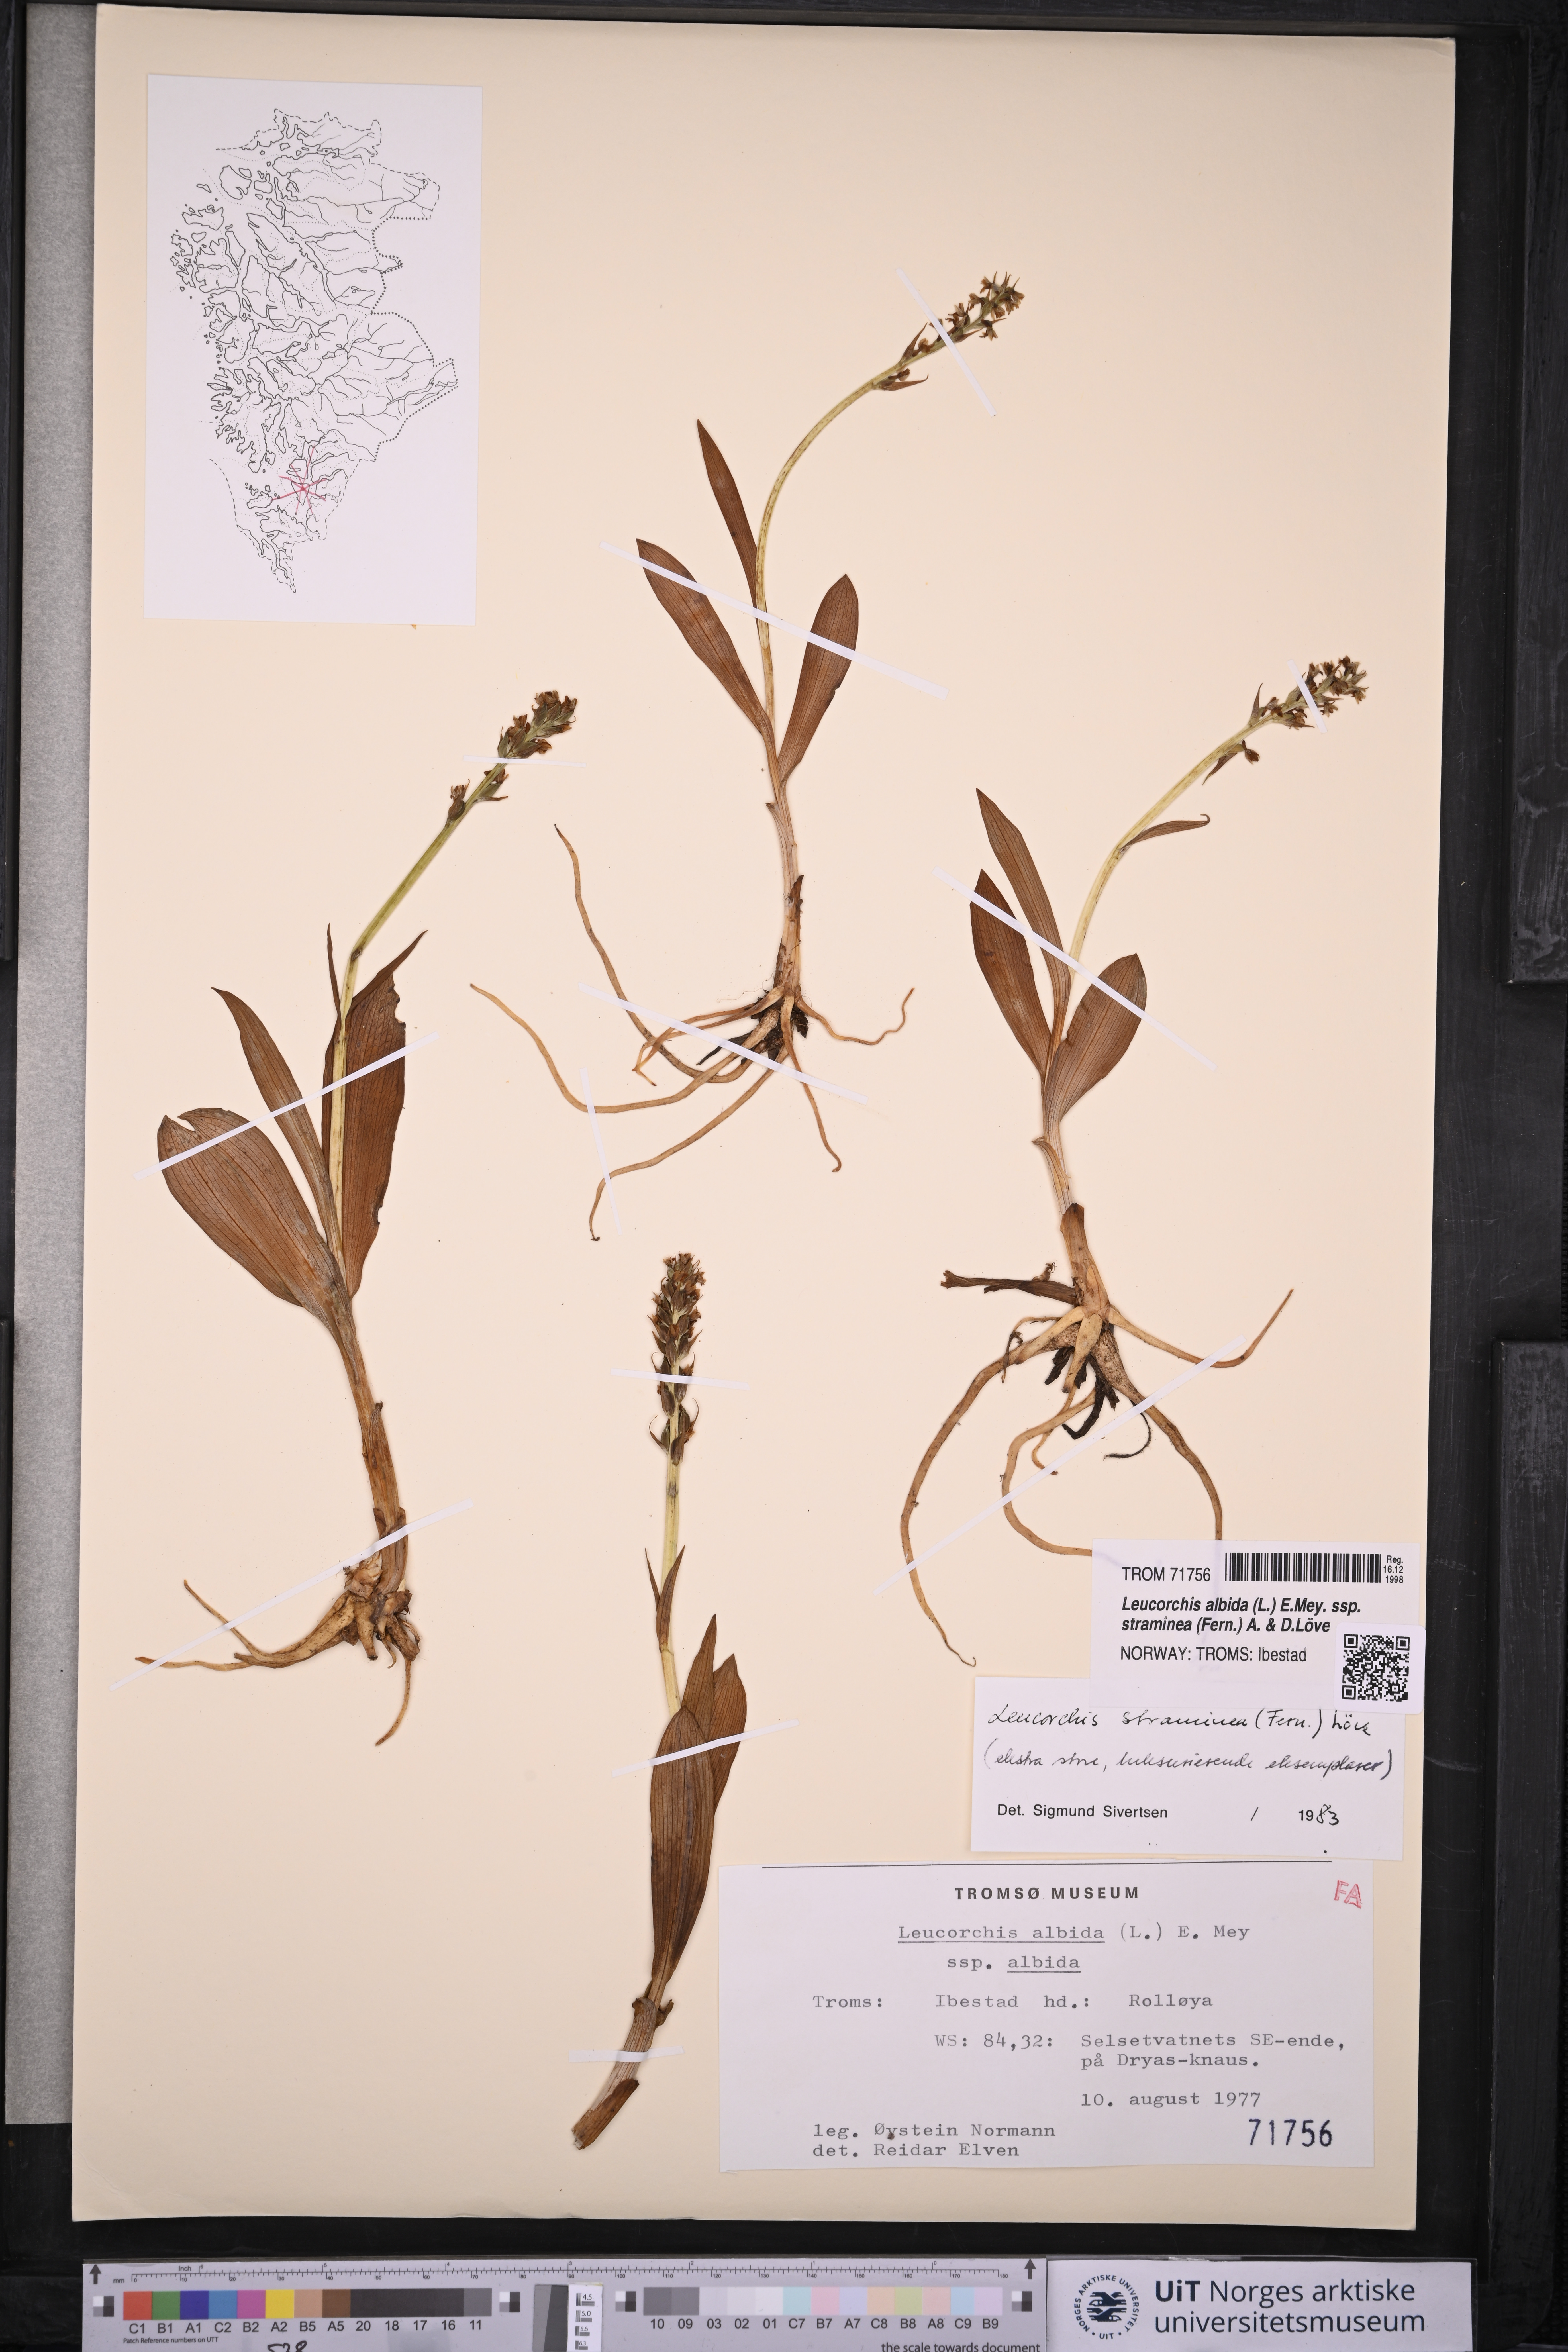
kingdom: Plantae
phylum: Tracheophyta
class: Liliopsida
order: Asparagales
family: Orchidaceae
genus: Pseudorchis
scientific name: Pseudorchis straminea
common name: Vanilla-scented bog orchid
